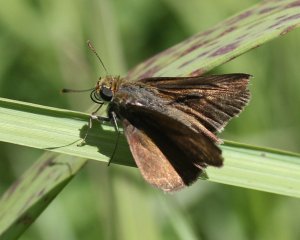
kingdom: Animalia
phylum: Arthropoda
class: Insecta
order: Lepidoptera
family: Hesperiidae
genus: Euphyes
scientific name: Euphyes vestris
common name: Dun Skipper
